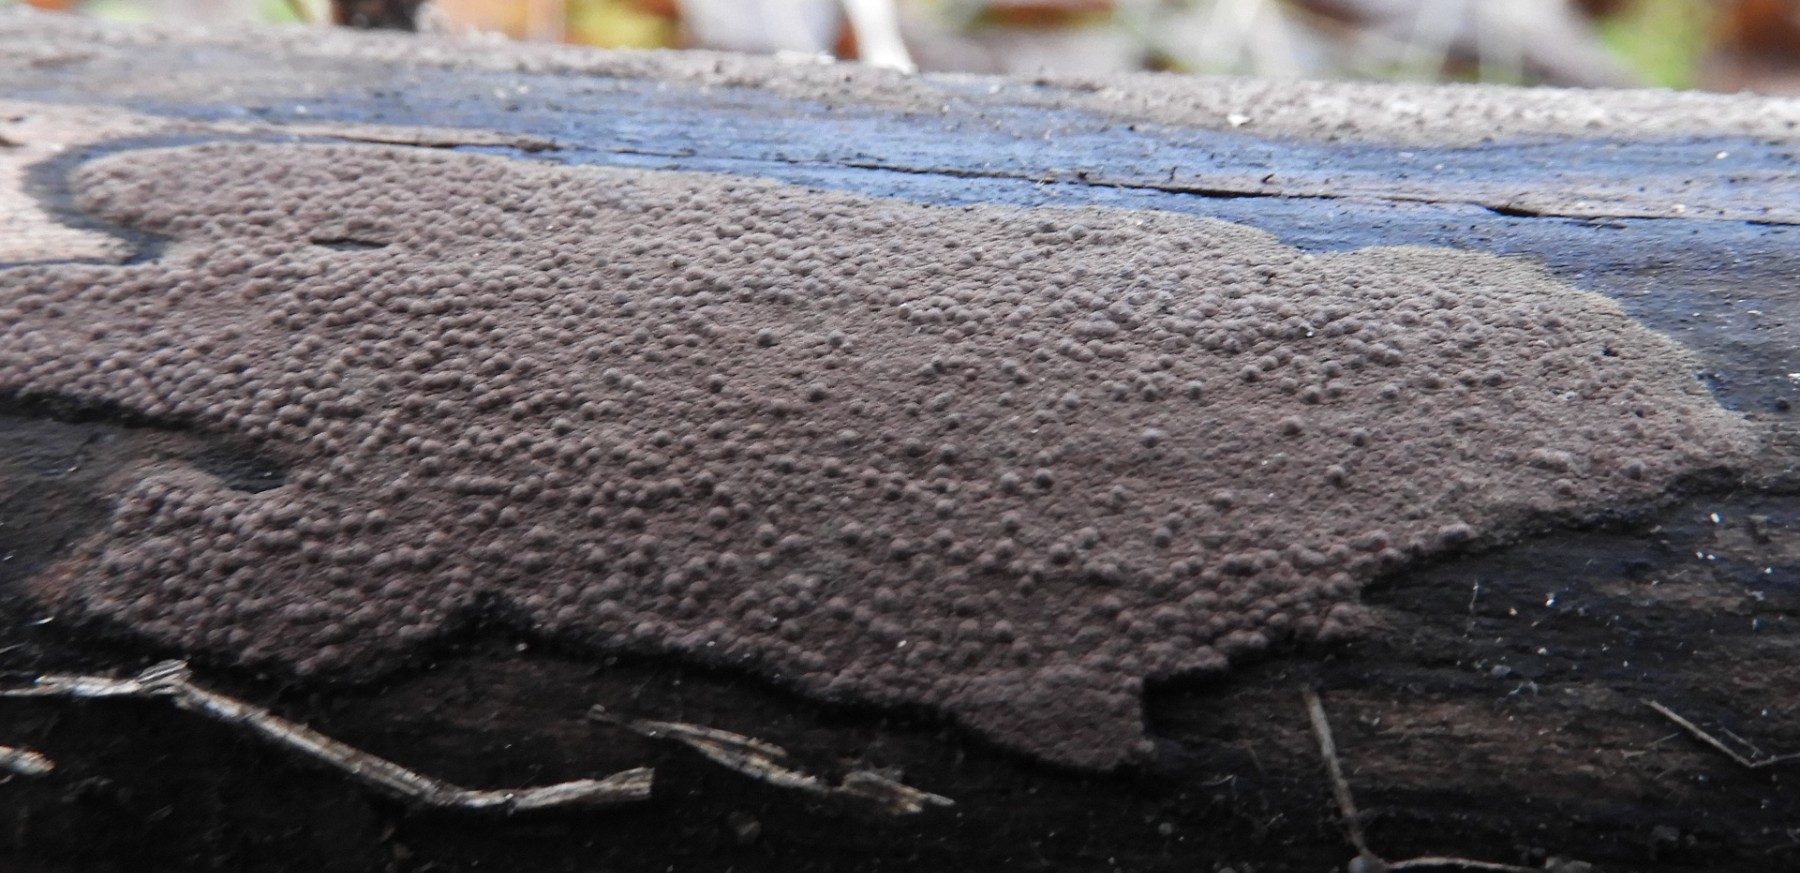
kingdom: Fungi
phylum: Ascomycota
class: Sordariomycetes
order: Xylariales
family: Hypoxylaceae
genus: Hypoxylon
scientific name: Hypoxylon
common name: kulbær
